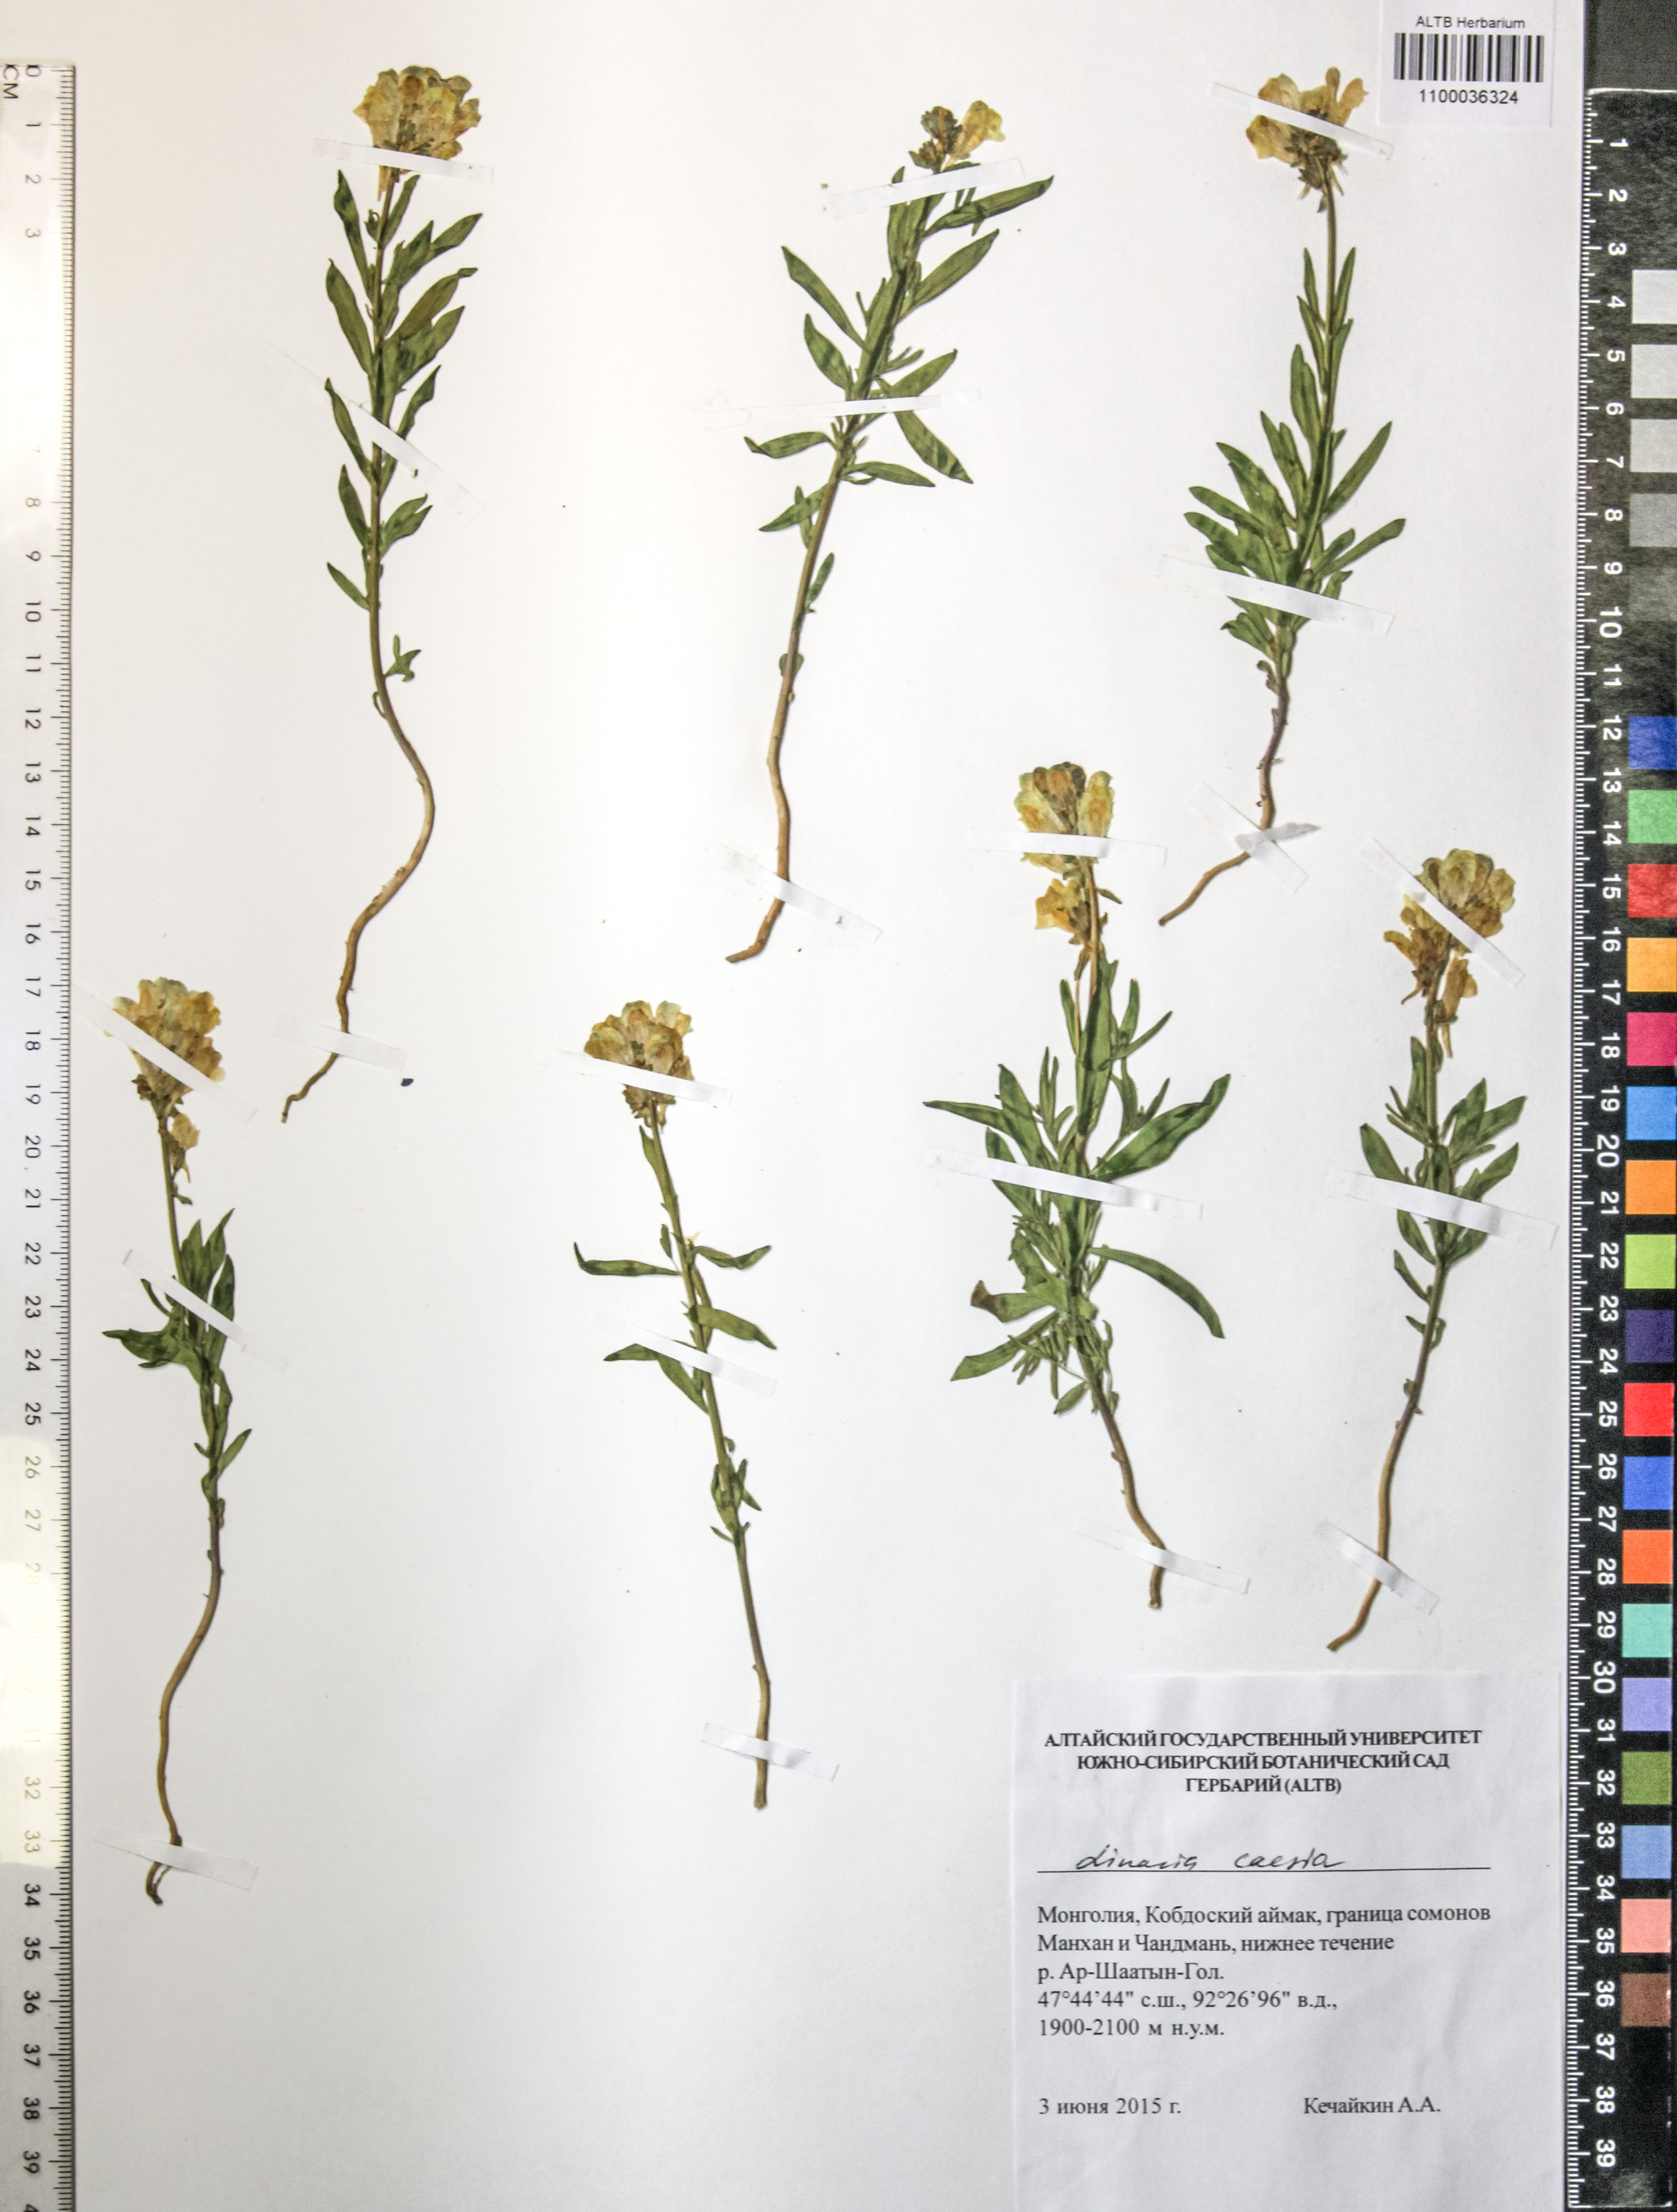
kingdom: Plantae
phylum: Tracheophyta
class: Magnoliopsida
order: Lamiales
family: Orobanchaceae
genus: Pedicularis
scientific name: Pedicularis elata
